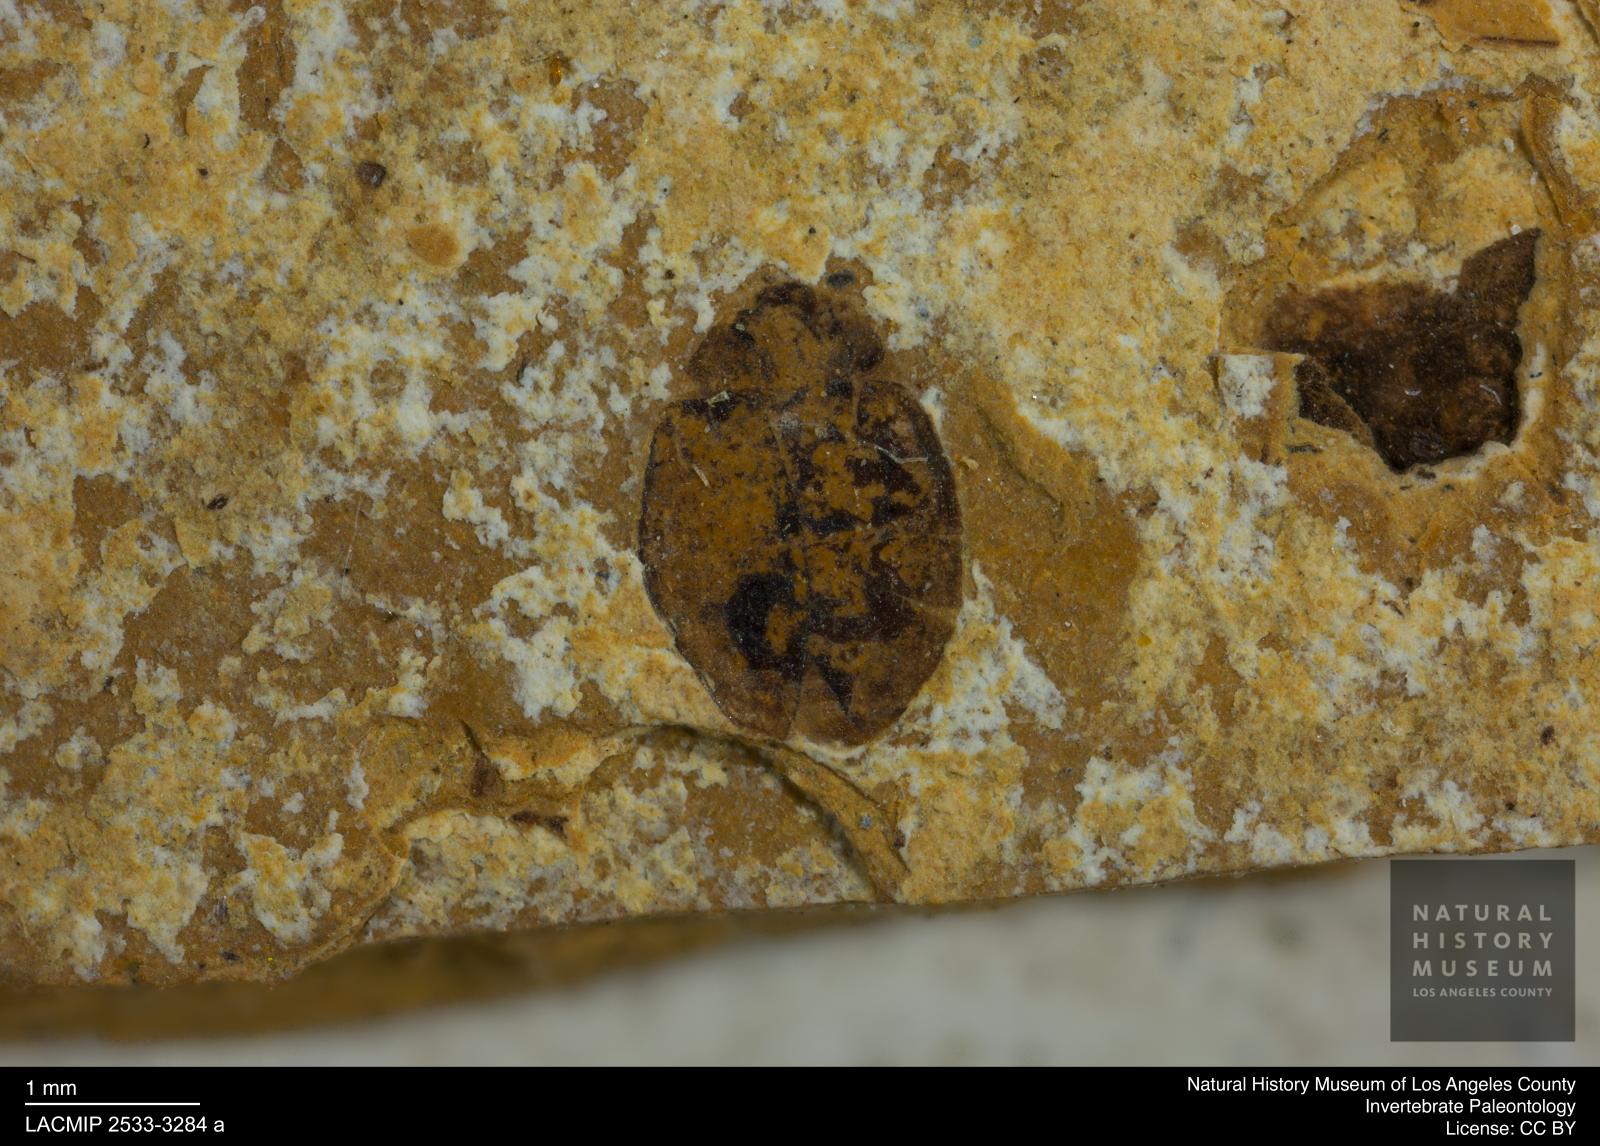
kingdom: Animalia
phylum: Arthropoda
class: Insecta
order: Coleoptera
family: Hydrophilidae
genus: Paracymus
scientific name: Paracymus excitatus
